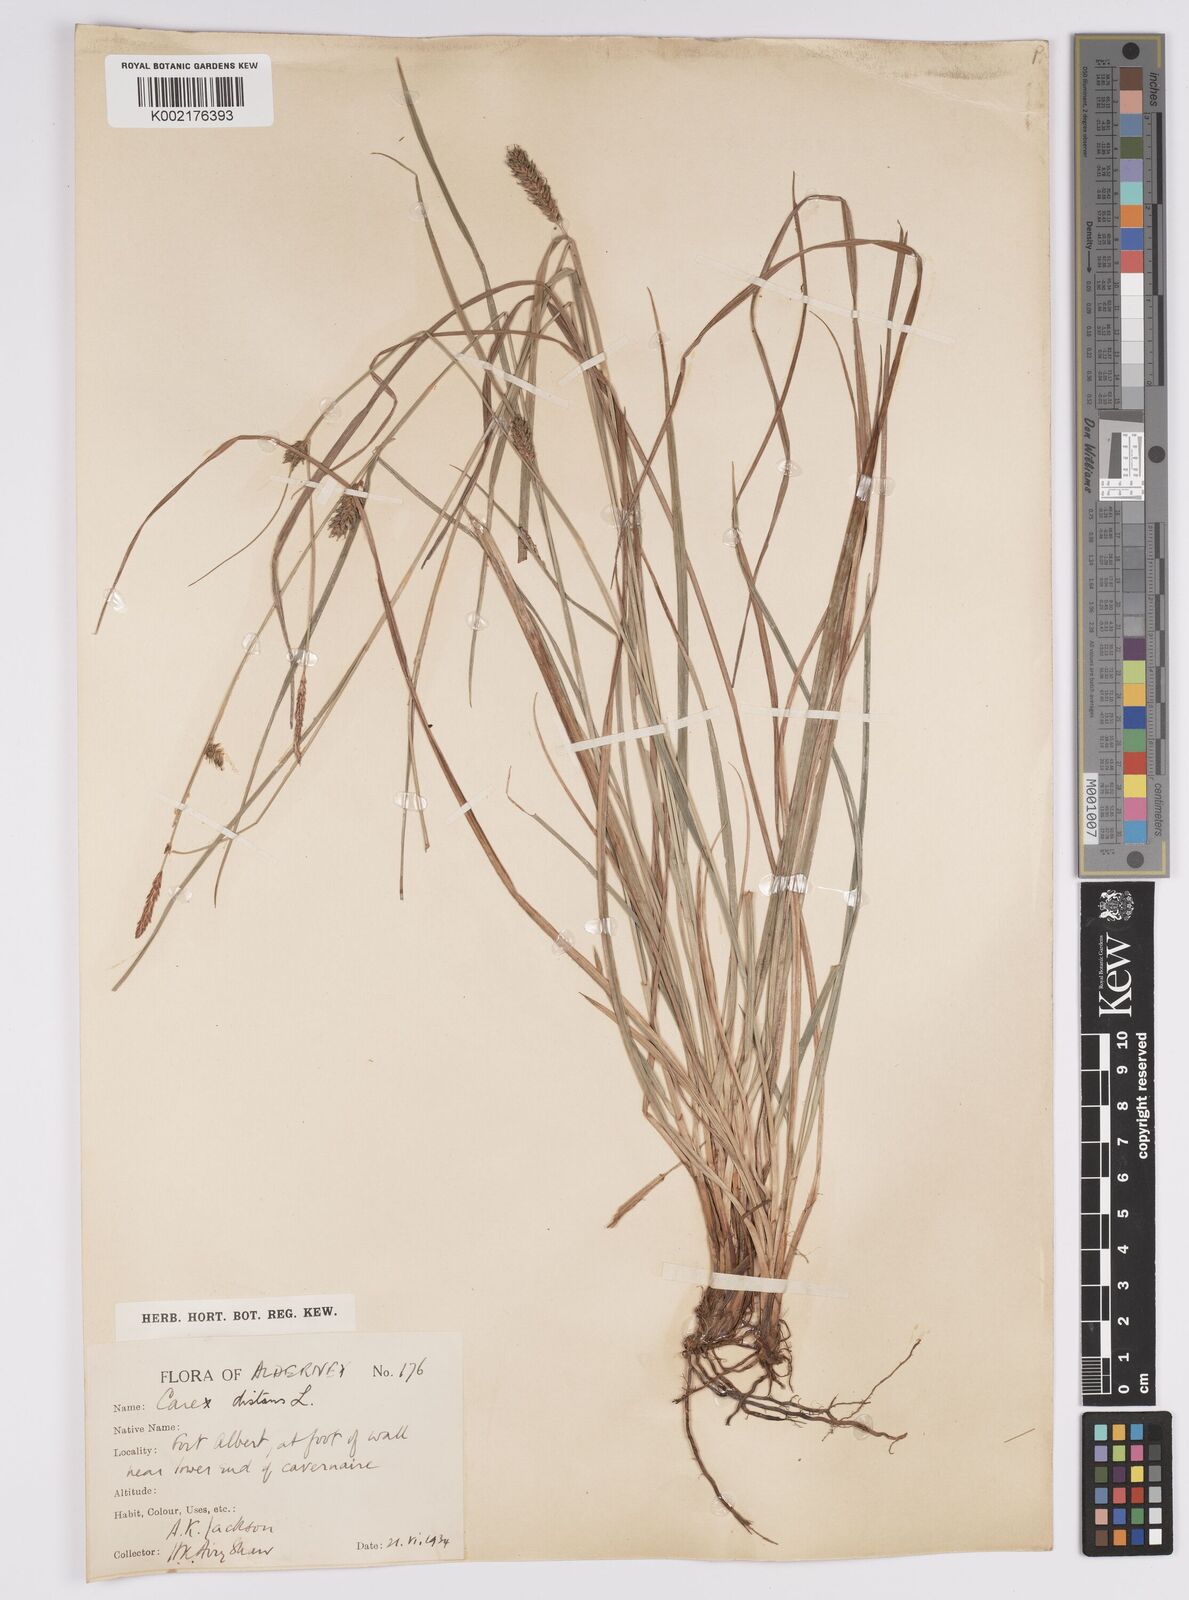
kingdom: Plantae
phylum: Tracheophyta
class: Liliopsida
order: Poales
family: Cyperaceae
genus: Carex
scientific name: Carex distans
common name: Distant sedge
